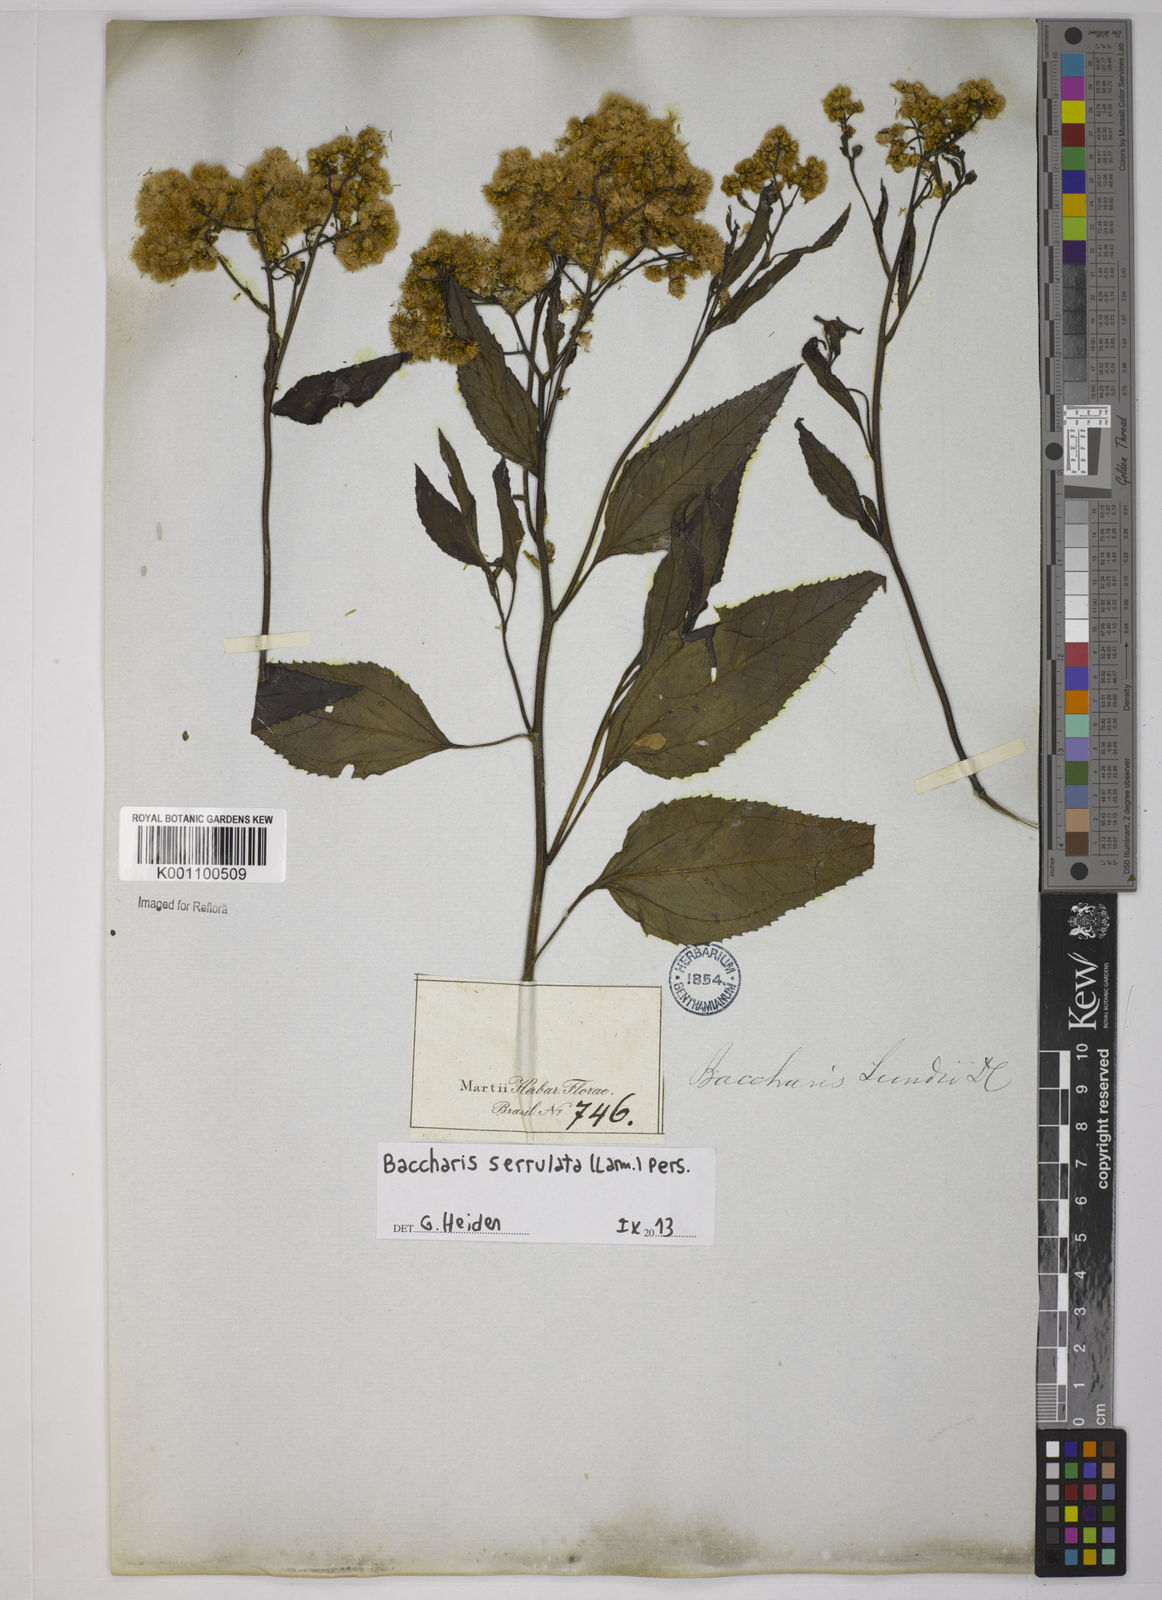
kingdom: Plantae
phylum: Tracheophyta
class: Magnoliopsida
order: Asterales
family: Asteraceae
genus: Baccharis
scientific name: Baccharis serrulata
